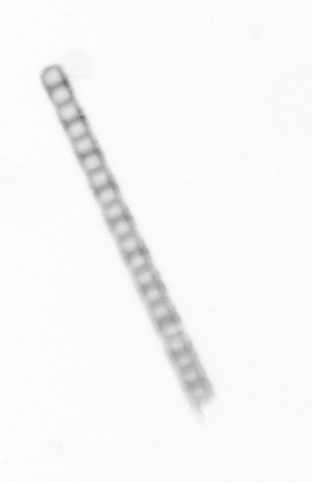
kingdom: Chromista
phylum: Ochrophyta
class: Bacillariophyceae
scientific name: Bacillariophyceae
